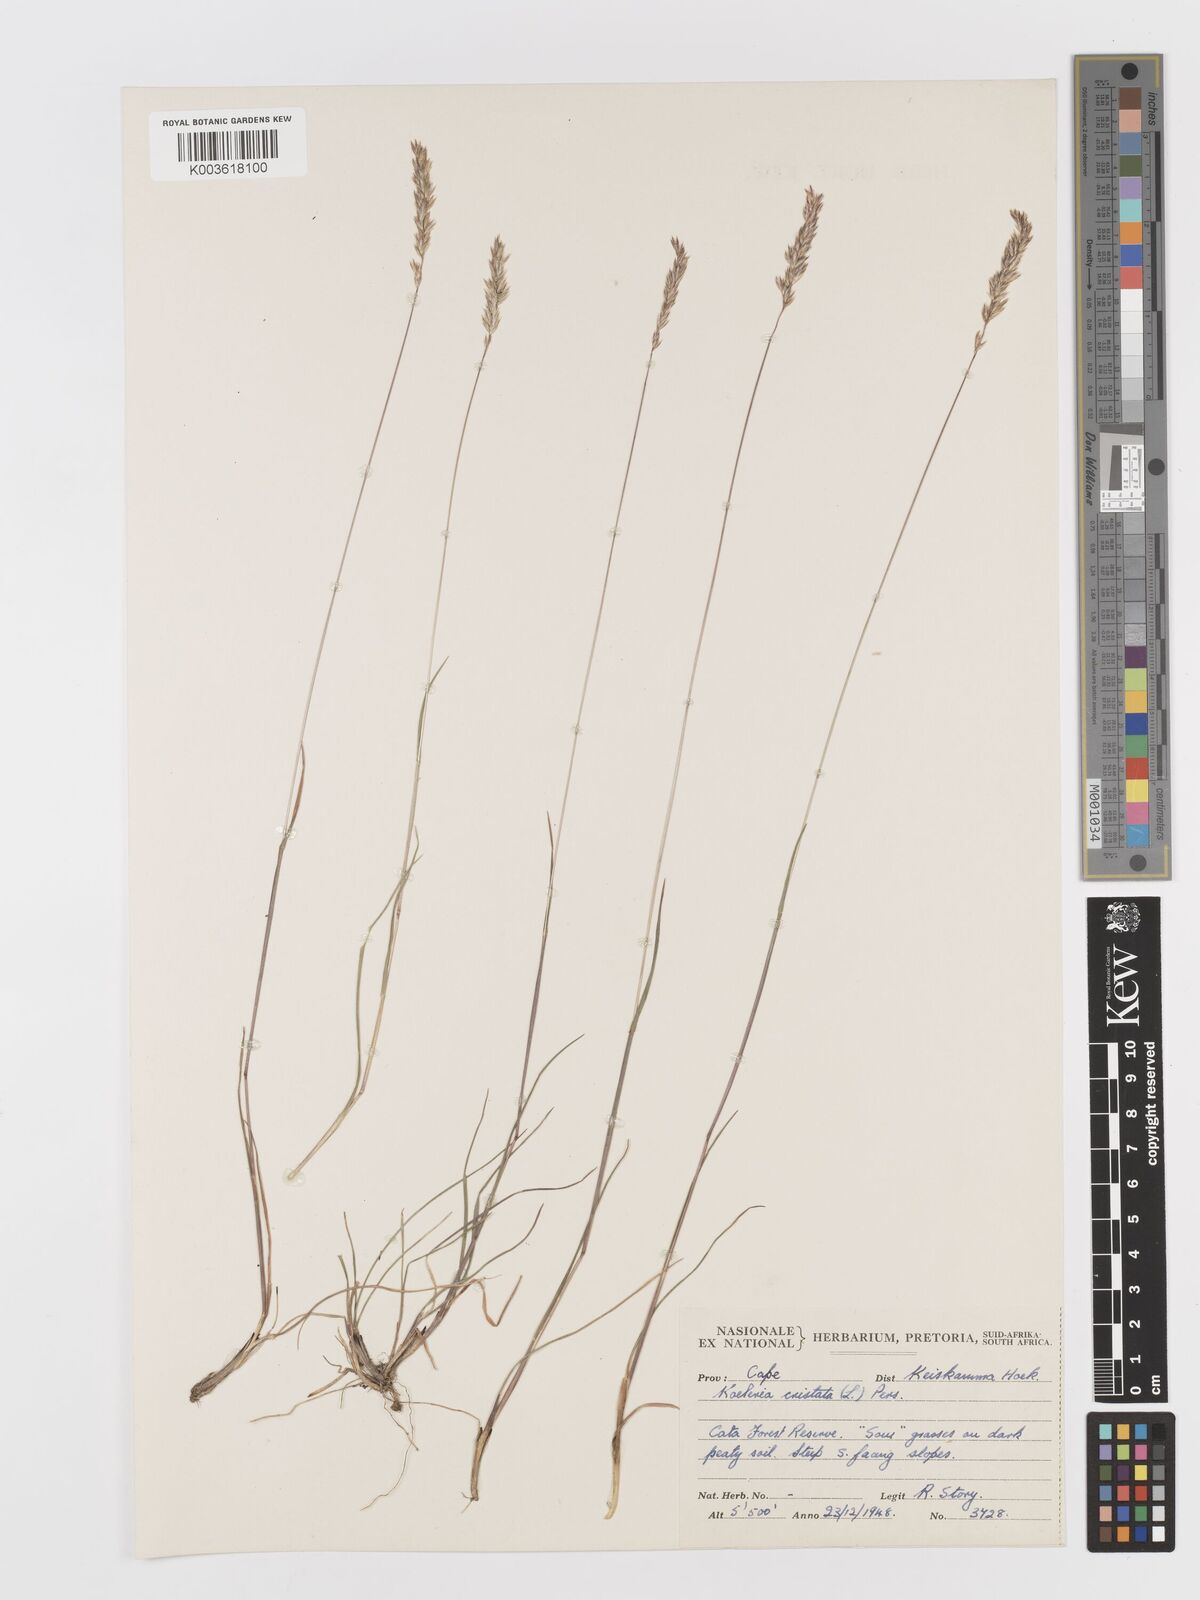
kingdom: Plantae
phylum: Tracheophyta
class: Liliopsida
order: Poales
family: Poaceae
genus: Koeleria
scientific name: Koeleria capensis
